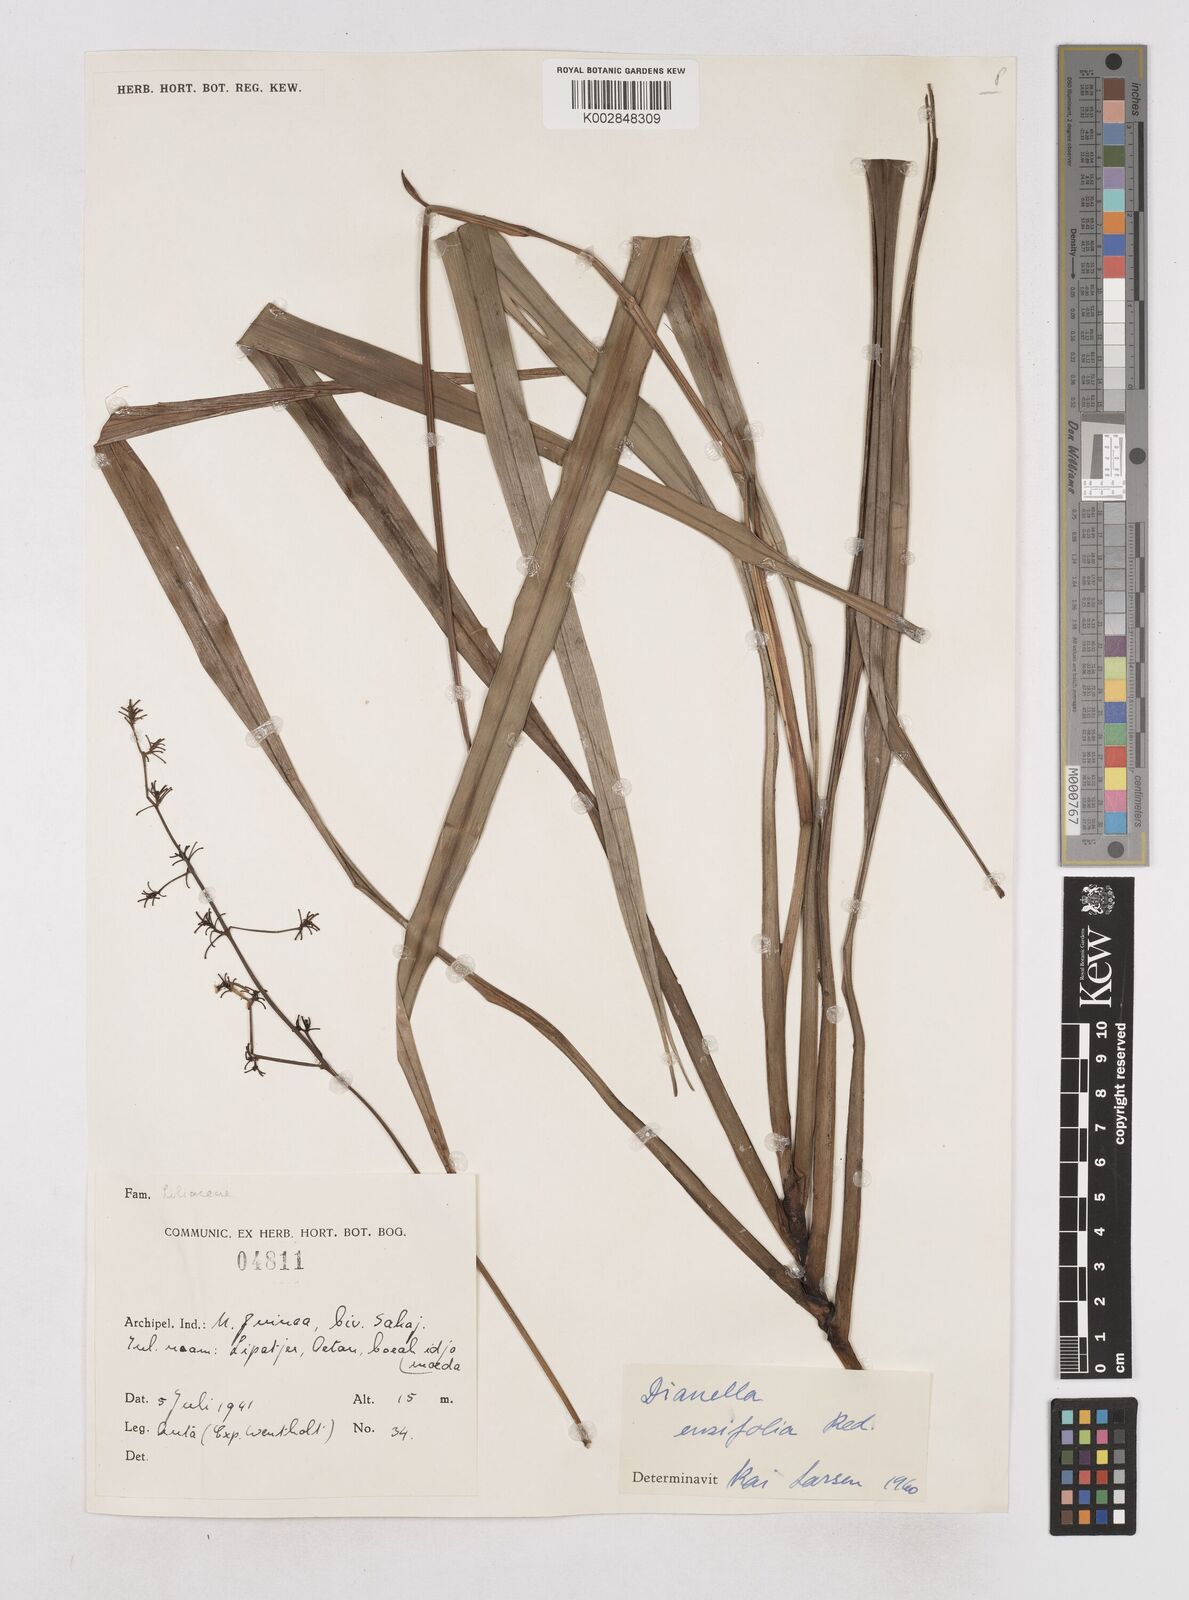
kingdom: Plantae
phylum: Tracheophyta
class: Liliopsida
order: Asparagales
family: Asphodelaceae
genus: Dianella
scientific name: Dianella ensifolia
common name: New zealand lilyplant
